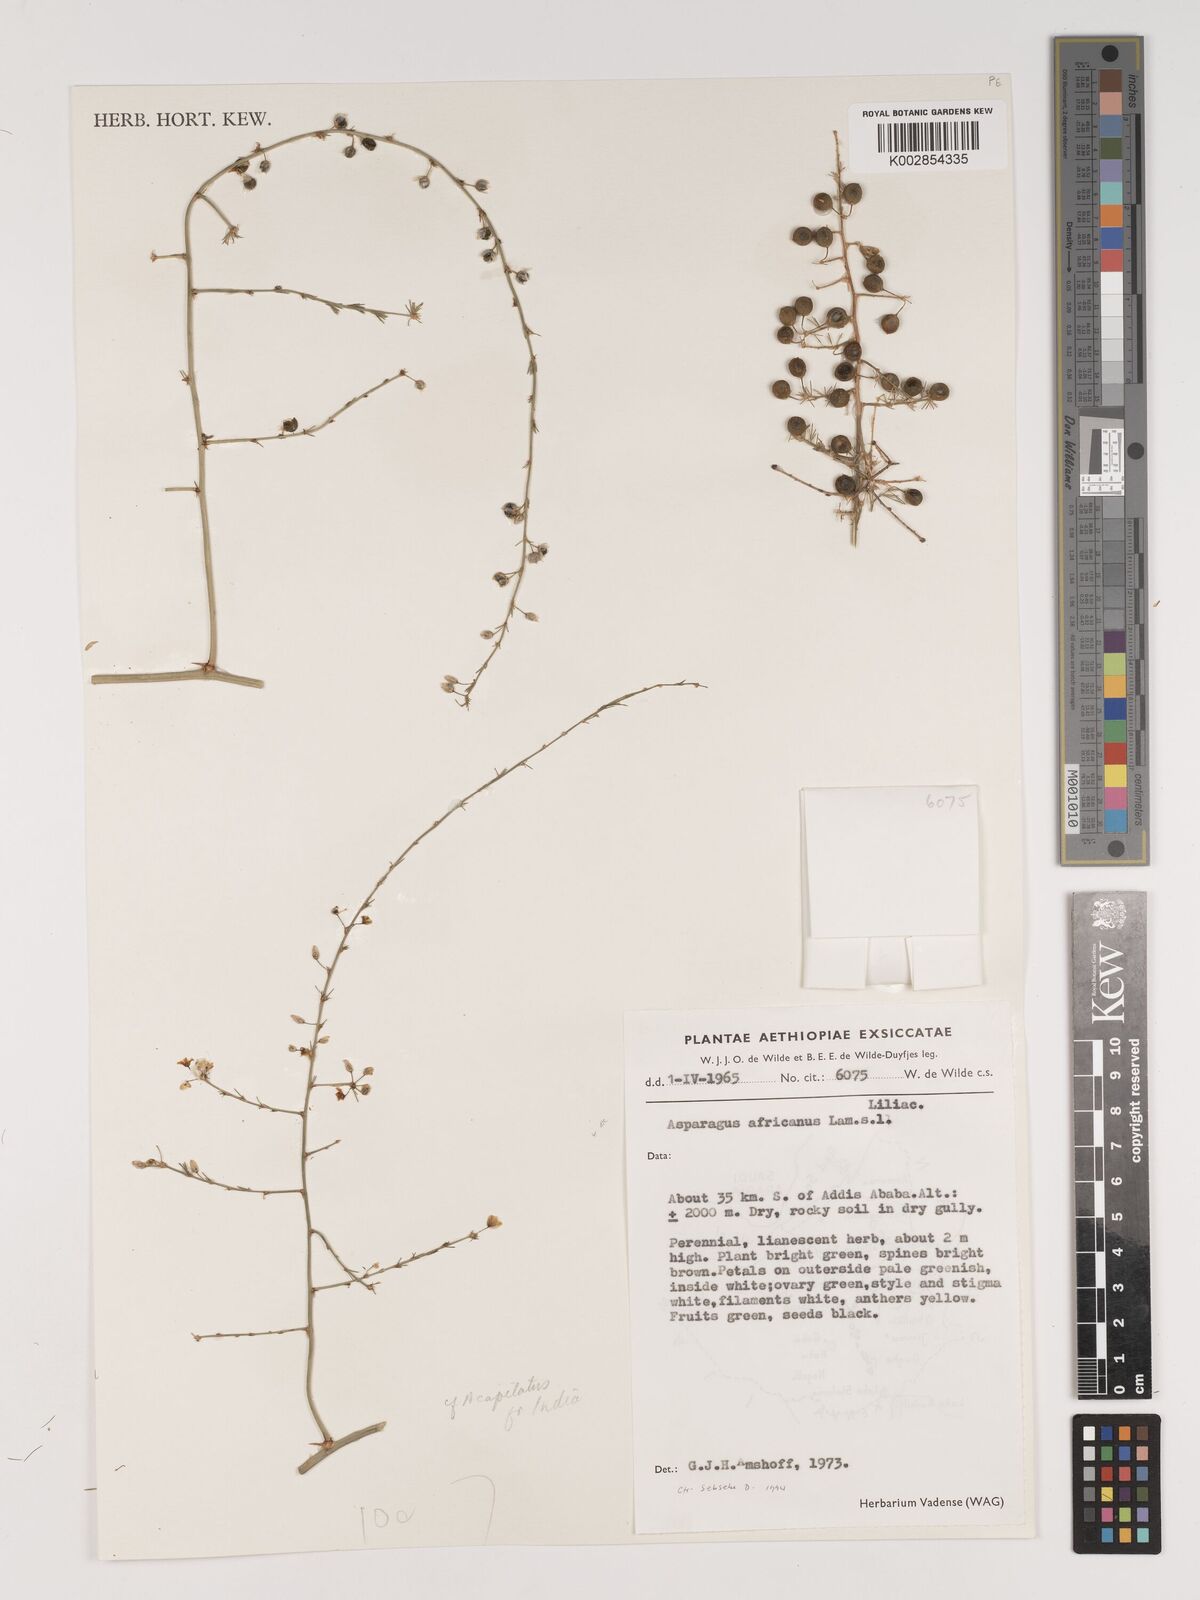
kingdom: Plantae
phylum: Tracheophyta
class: Liliopsida
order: Asparagales
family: Asparagaceae
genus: Asparagus
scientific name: Asparagus africanus
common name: Asparagus-fern
